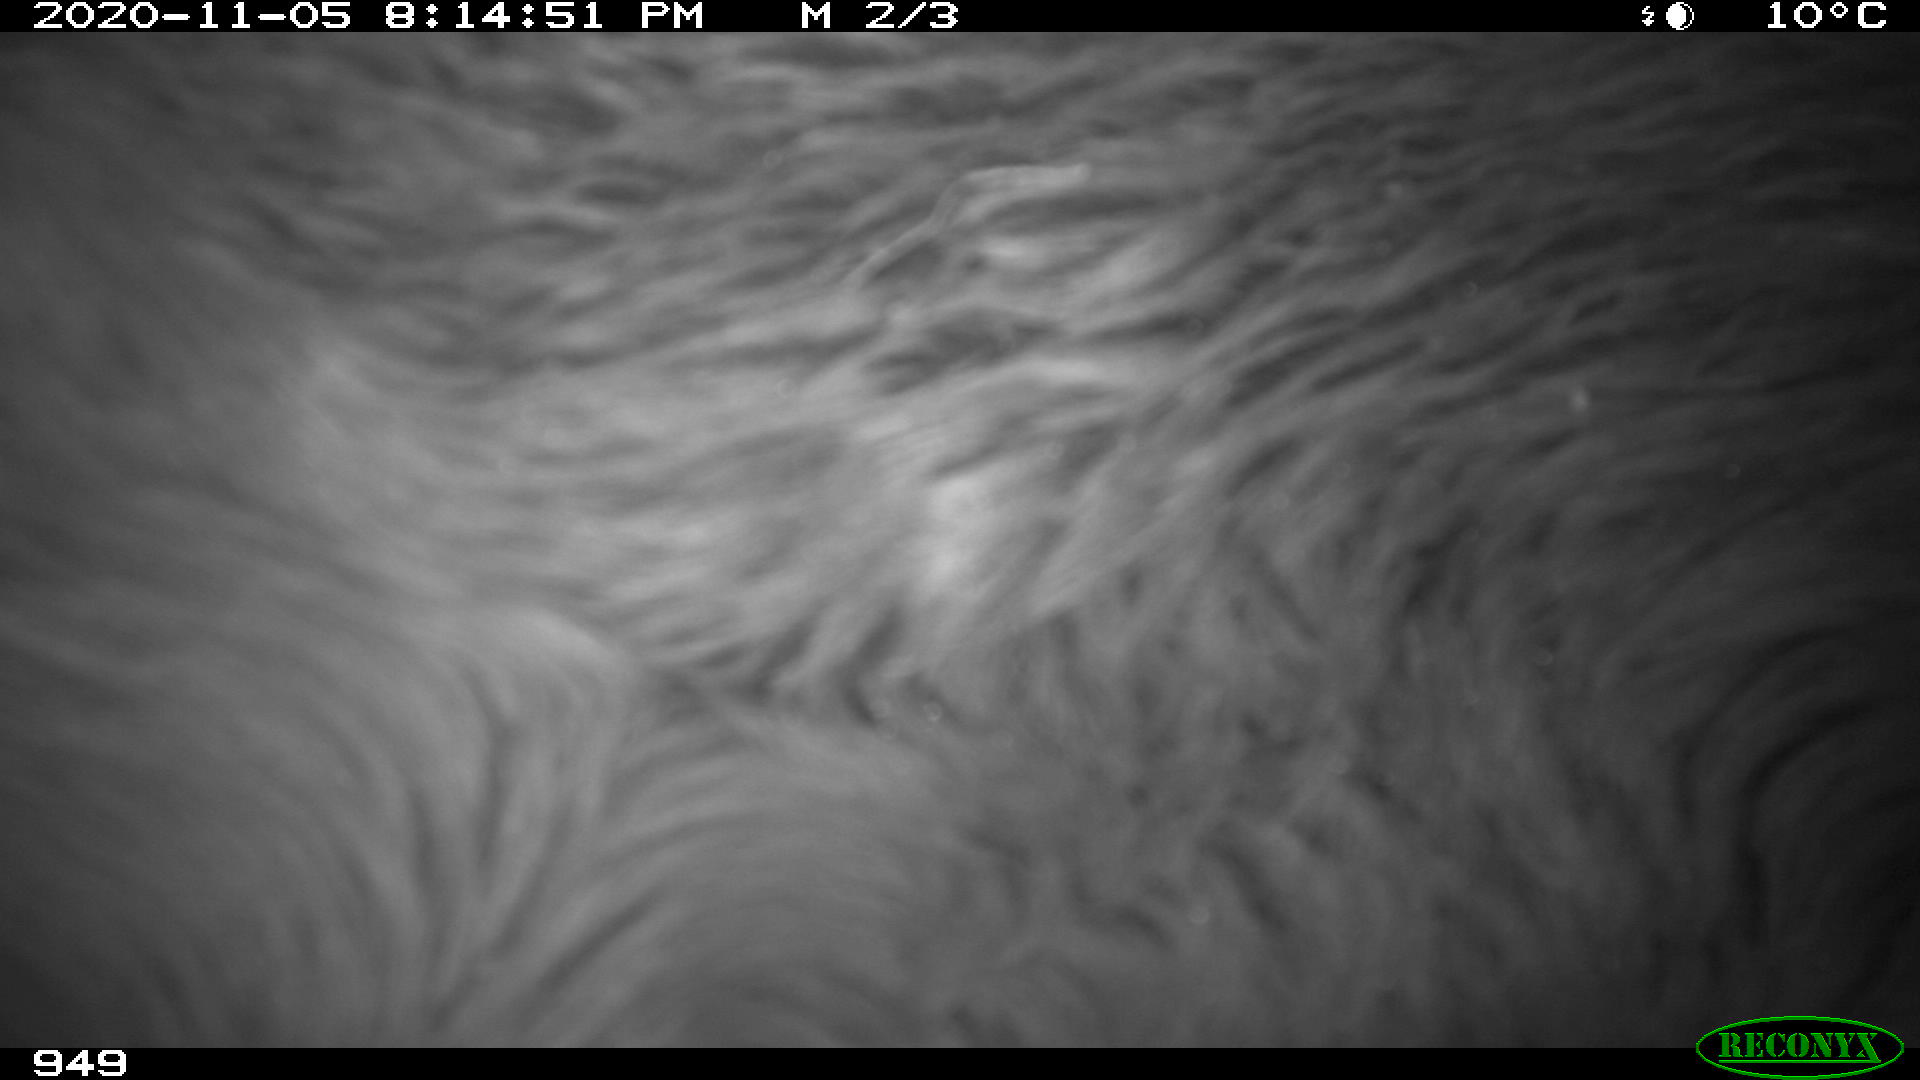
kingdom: Animalia
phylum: Chordata
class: Mammalia
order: Perissodactyla
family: Equidae
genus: Equus
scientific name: Equus caballus
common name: Horse
